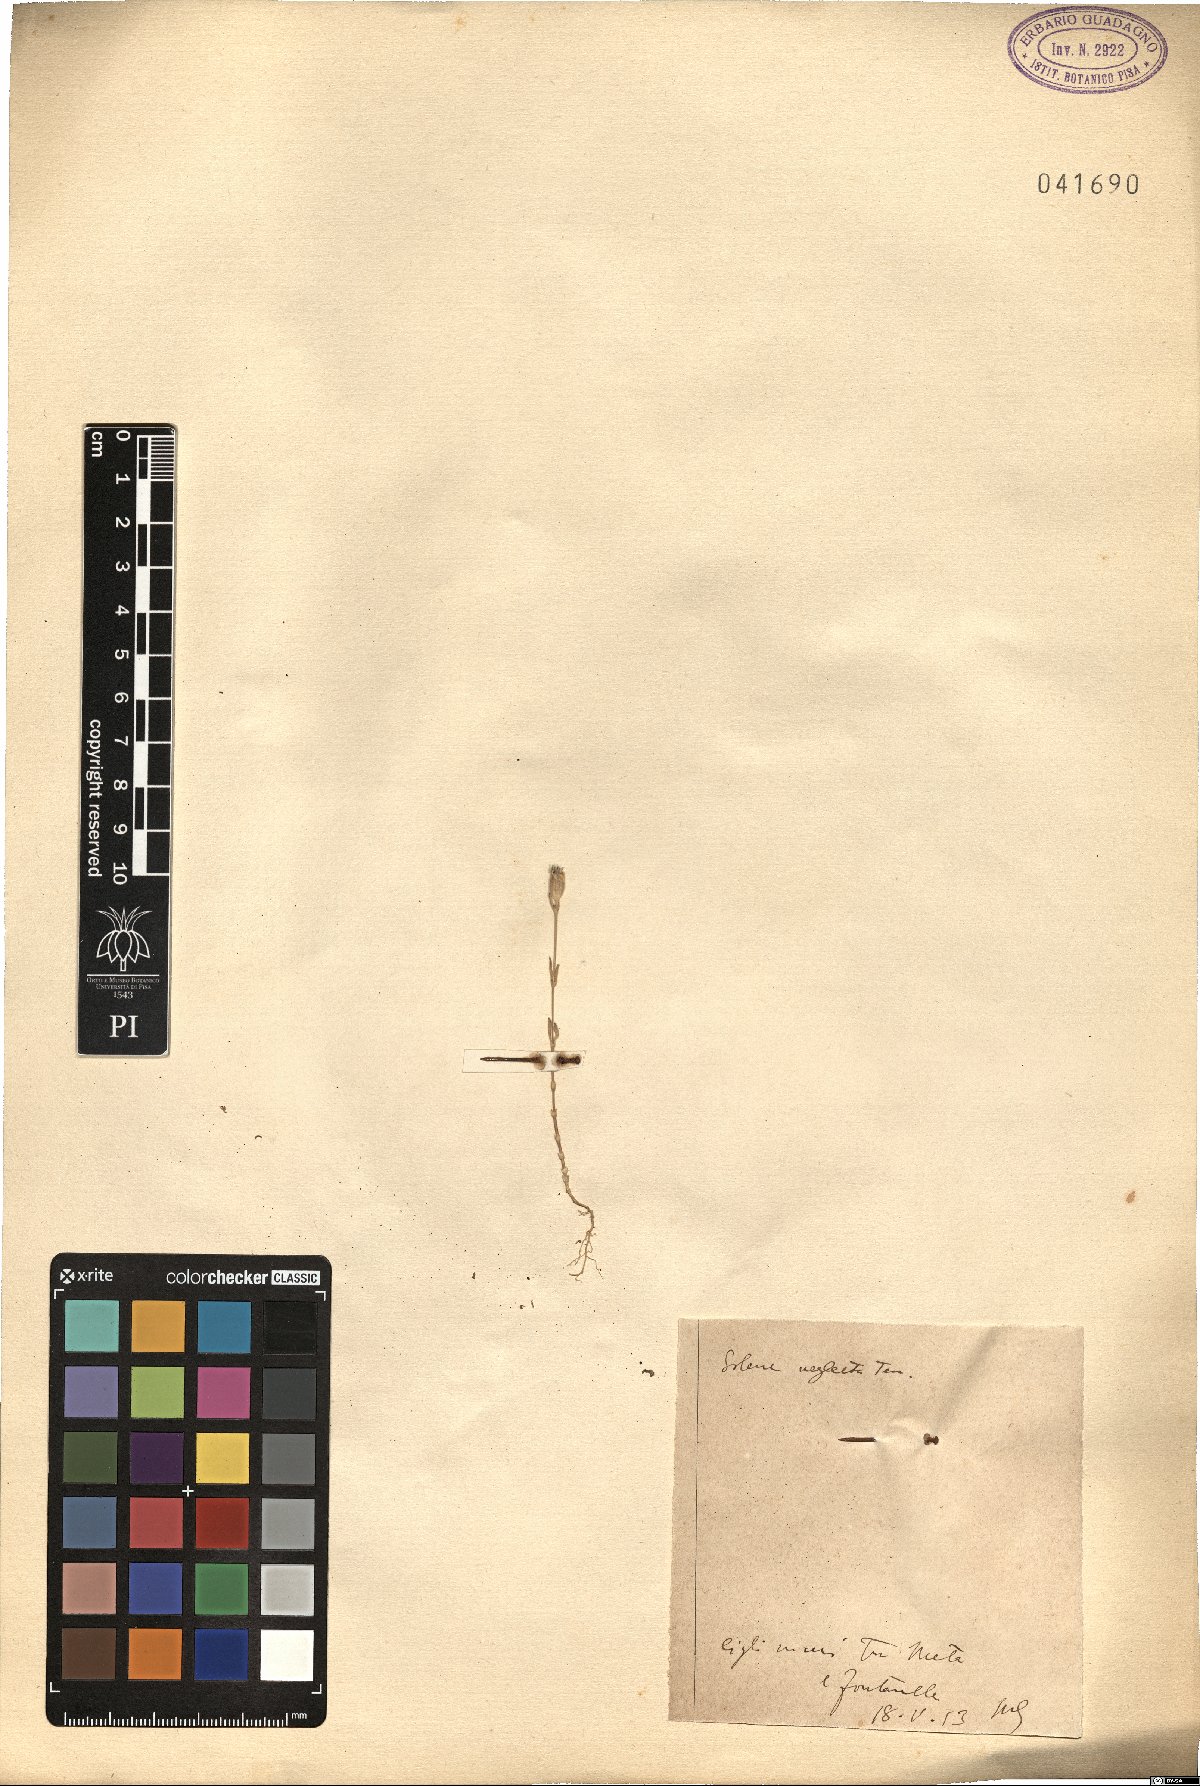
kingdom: Plantae
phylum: Tracheophyta
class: Magnoliopsida
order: Caryophyllales
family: Caryophyllaceae
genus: Silene
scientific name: Silene neglecta
